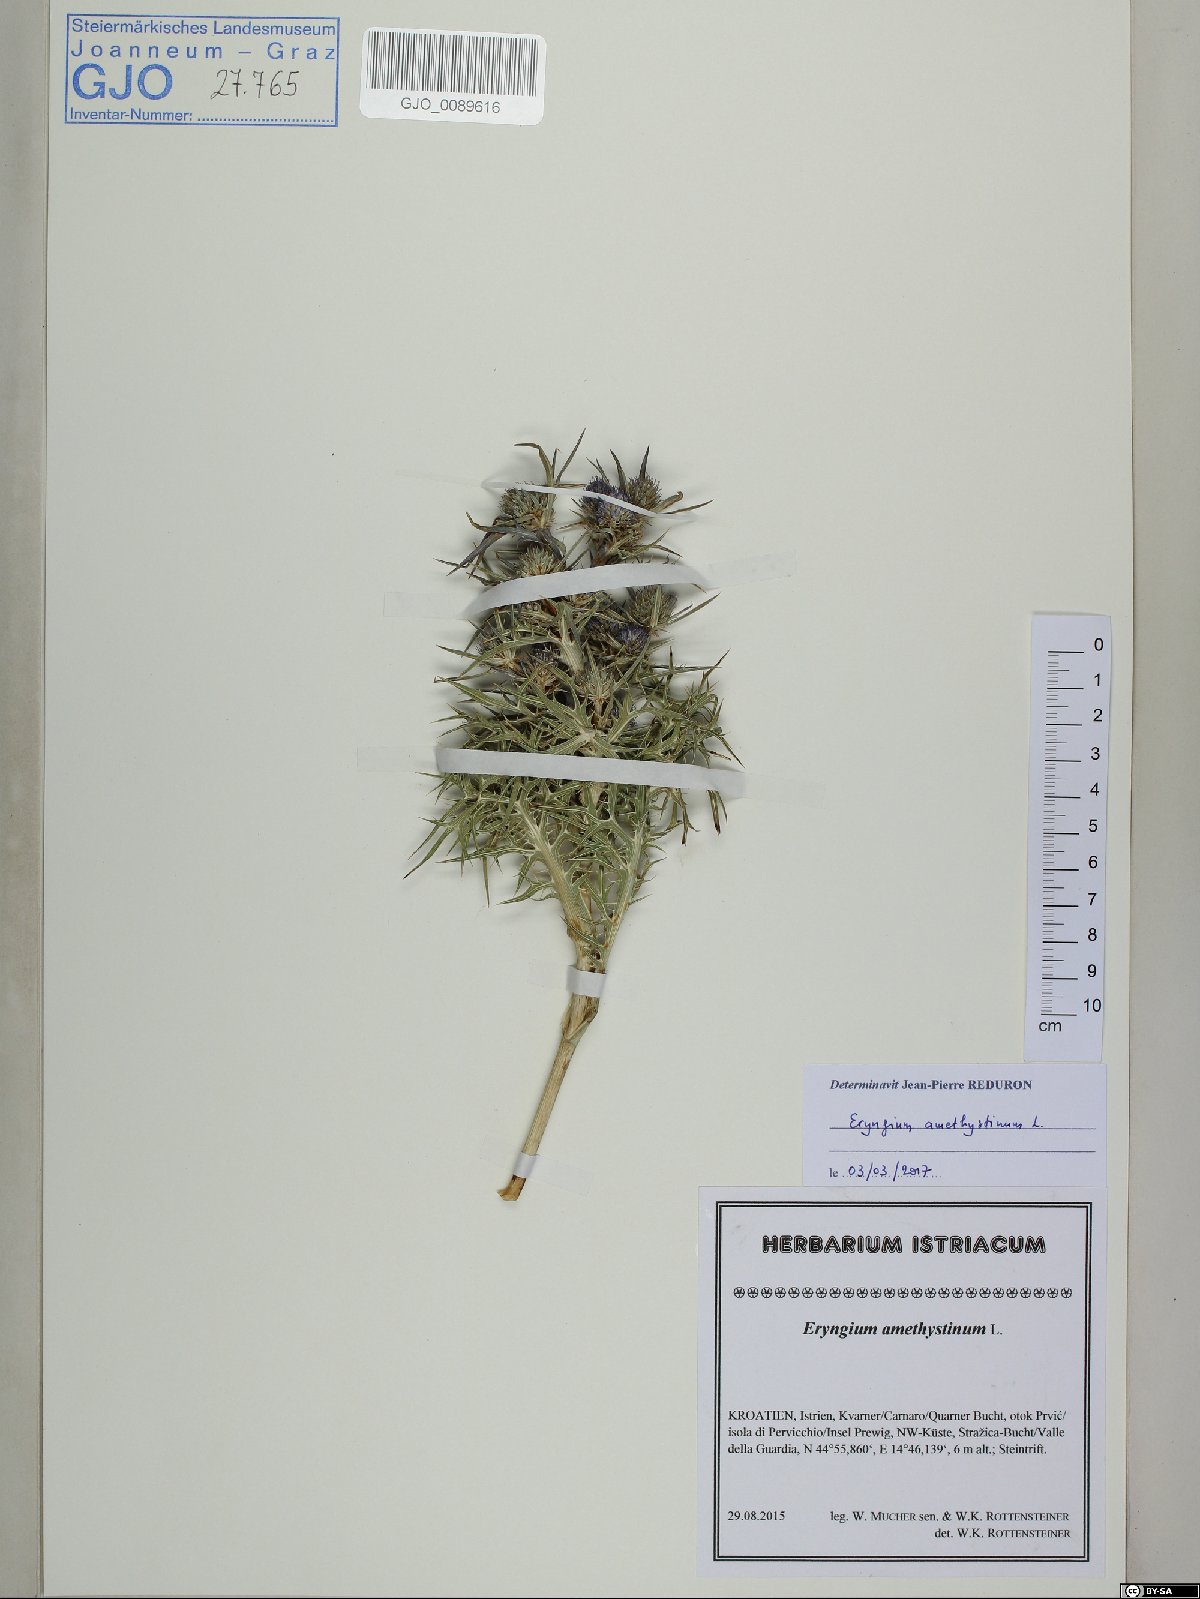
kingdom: Plantae
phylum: Tracheophyta
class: Magnoliopsida
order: Apiales
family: Apiaceae
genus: Eryngium
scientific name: Eryngium amethystinum
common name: Amethyst eryngo
